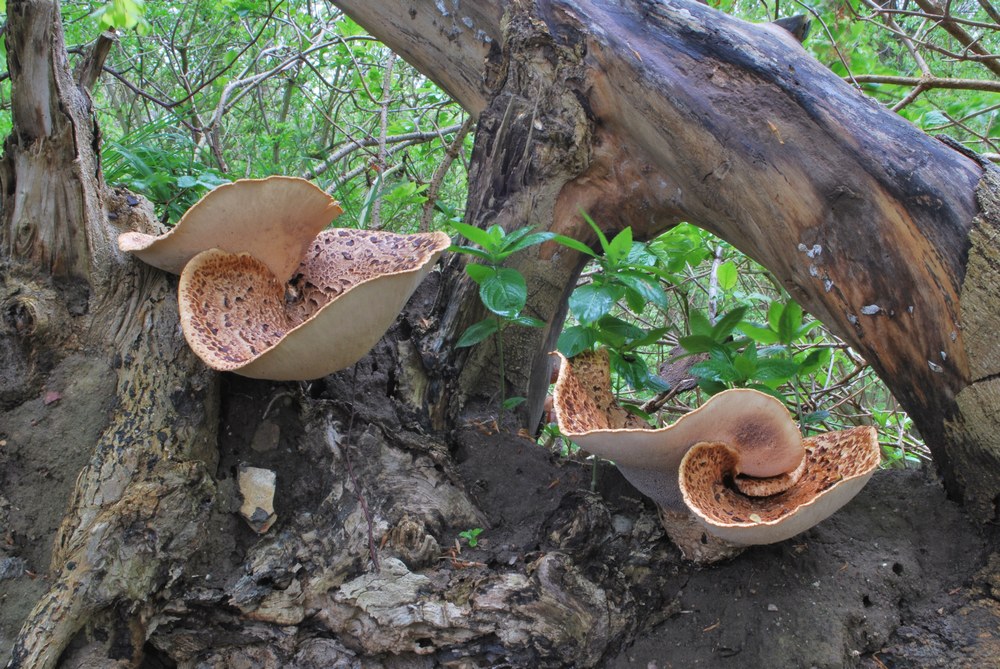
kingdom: Fungi
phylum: Basidiomycota
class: Agaricomycetes
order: Polyporales
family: Polyporaceae
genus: Cerioporus
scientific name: Cerioporus squamosus
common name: skællet stilkporesvamp
